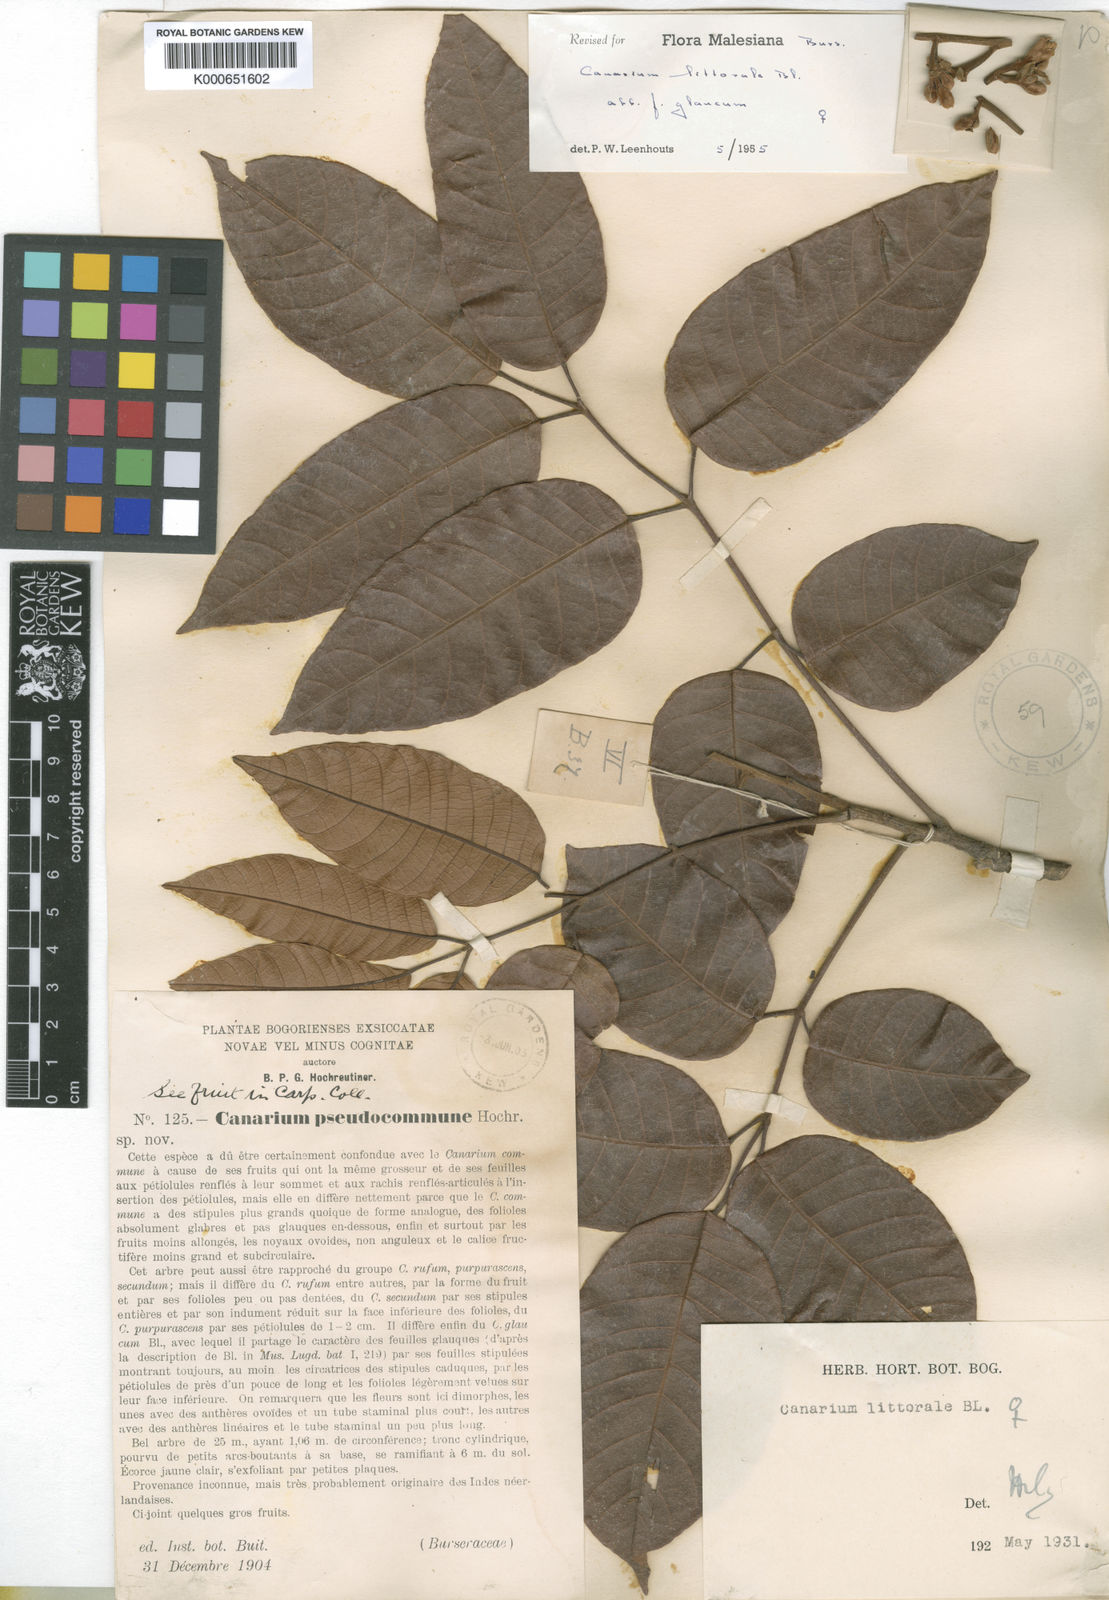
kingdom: Plantae
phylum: Tracheophyta
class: Magnoliopsida
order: Sapindales
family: Burseraceae
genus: Canarium
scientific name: Canarium littorale
